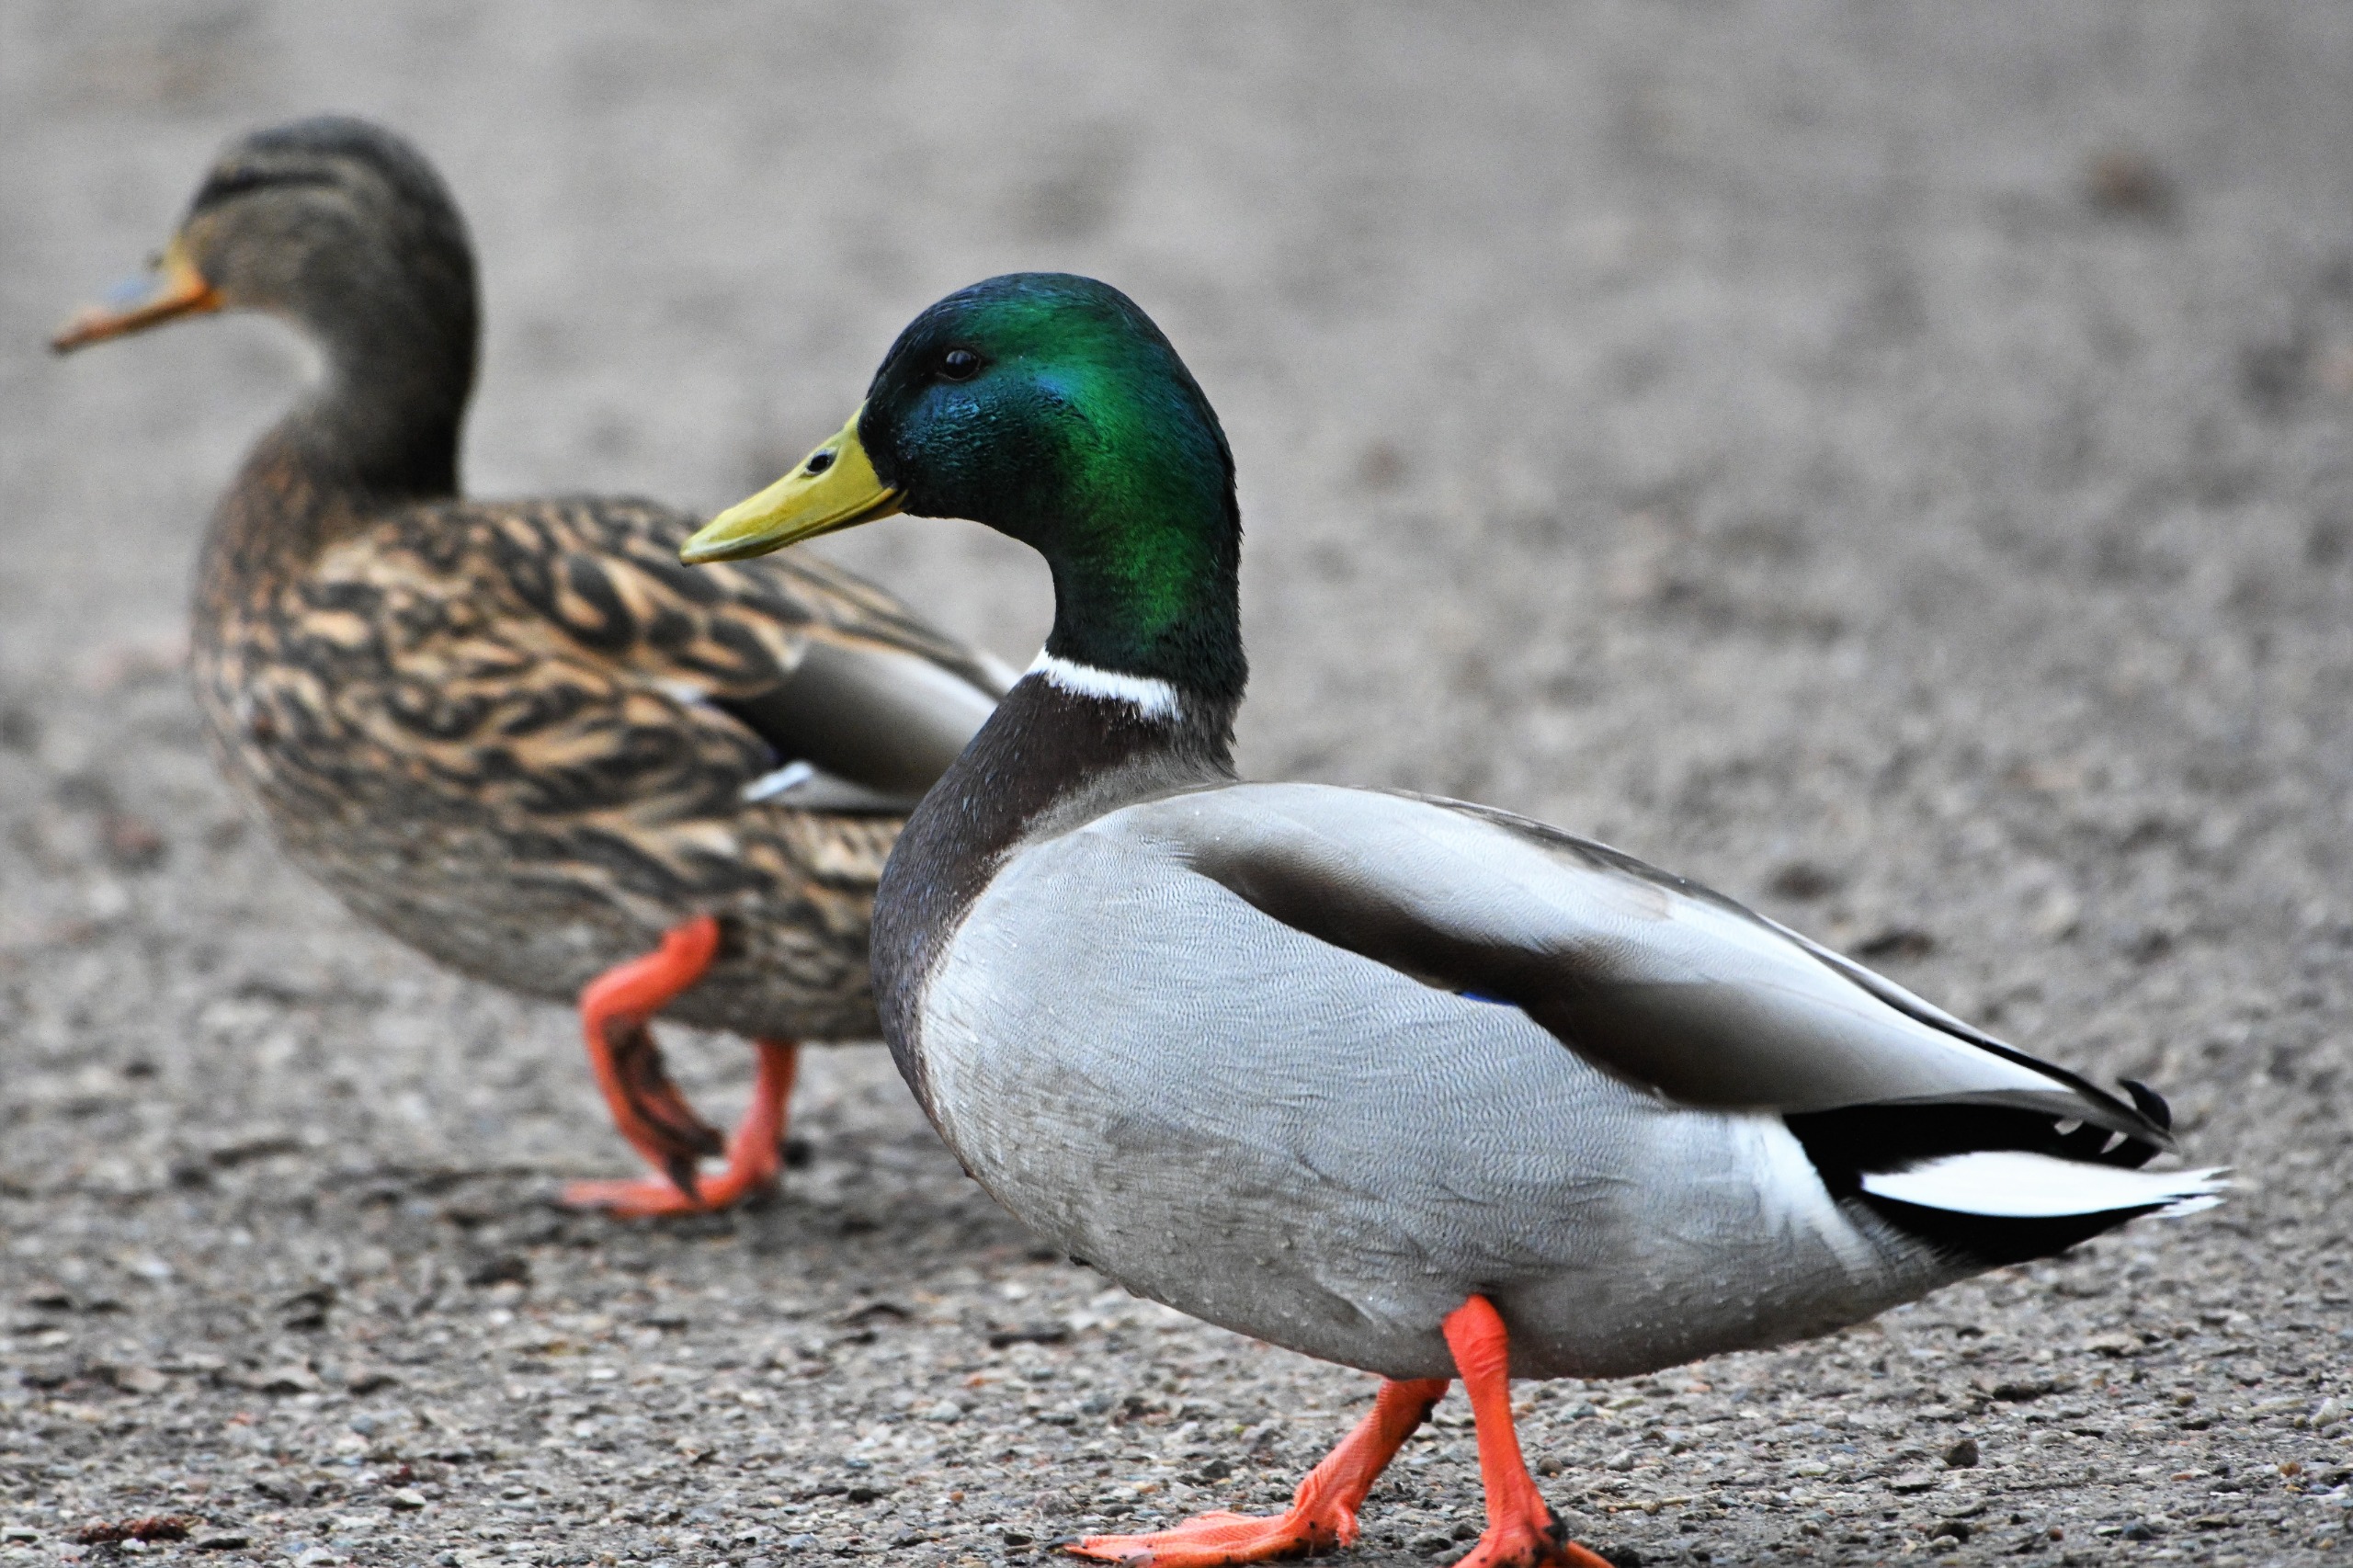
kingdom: Animalia
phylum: Chordata
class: Aves
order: Anseriformes
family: Anatidae
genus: Anas
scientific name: Anas platyrhynchos
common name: Gråand
